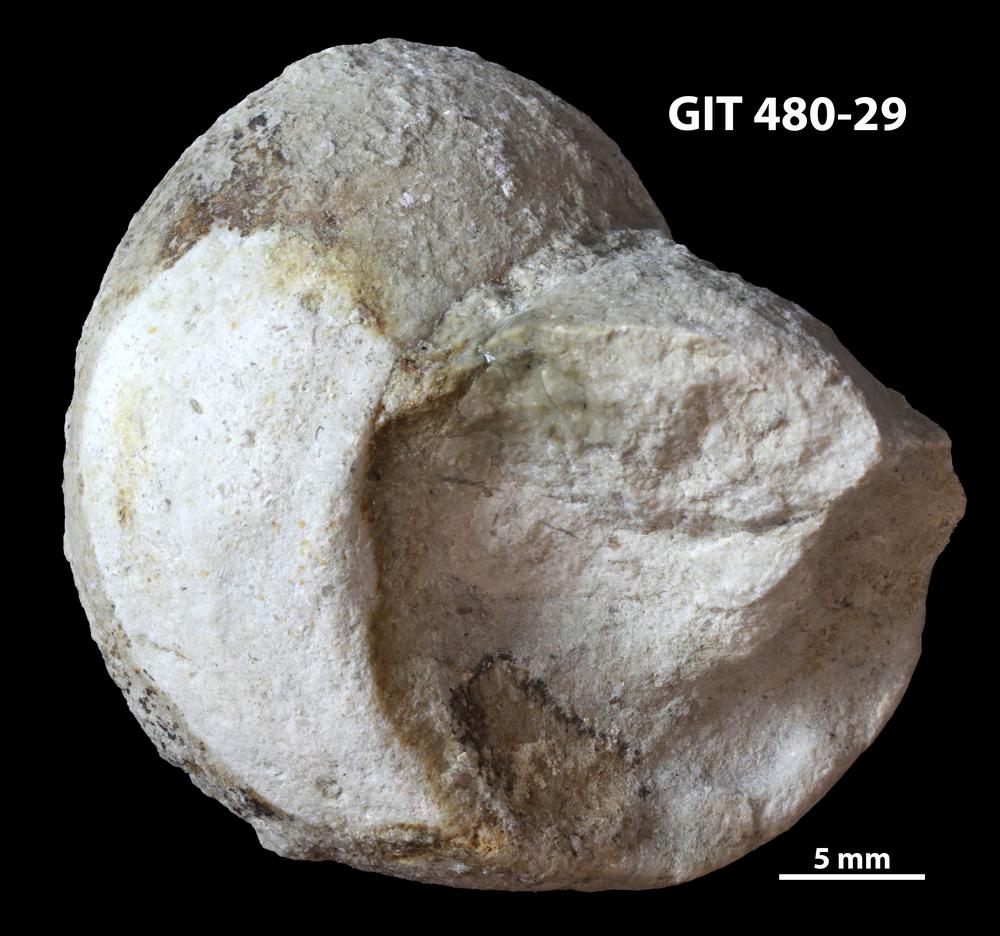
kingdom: Animalia
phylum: Mollusca
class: Gastropoda
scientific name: Gastropoda
